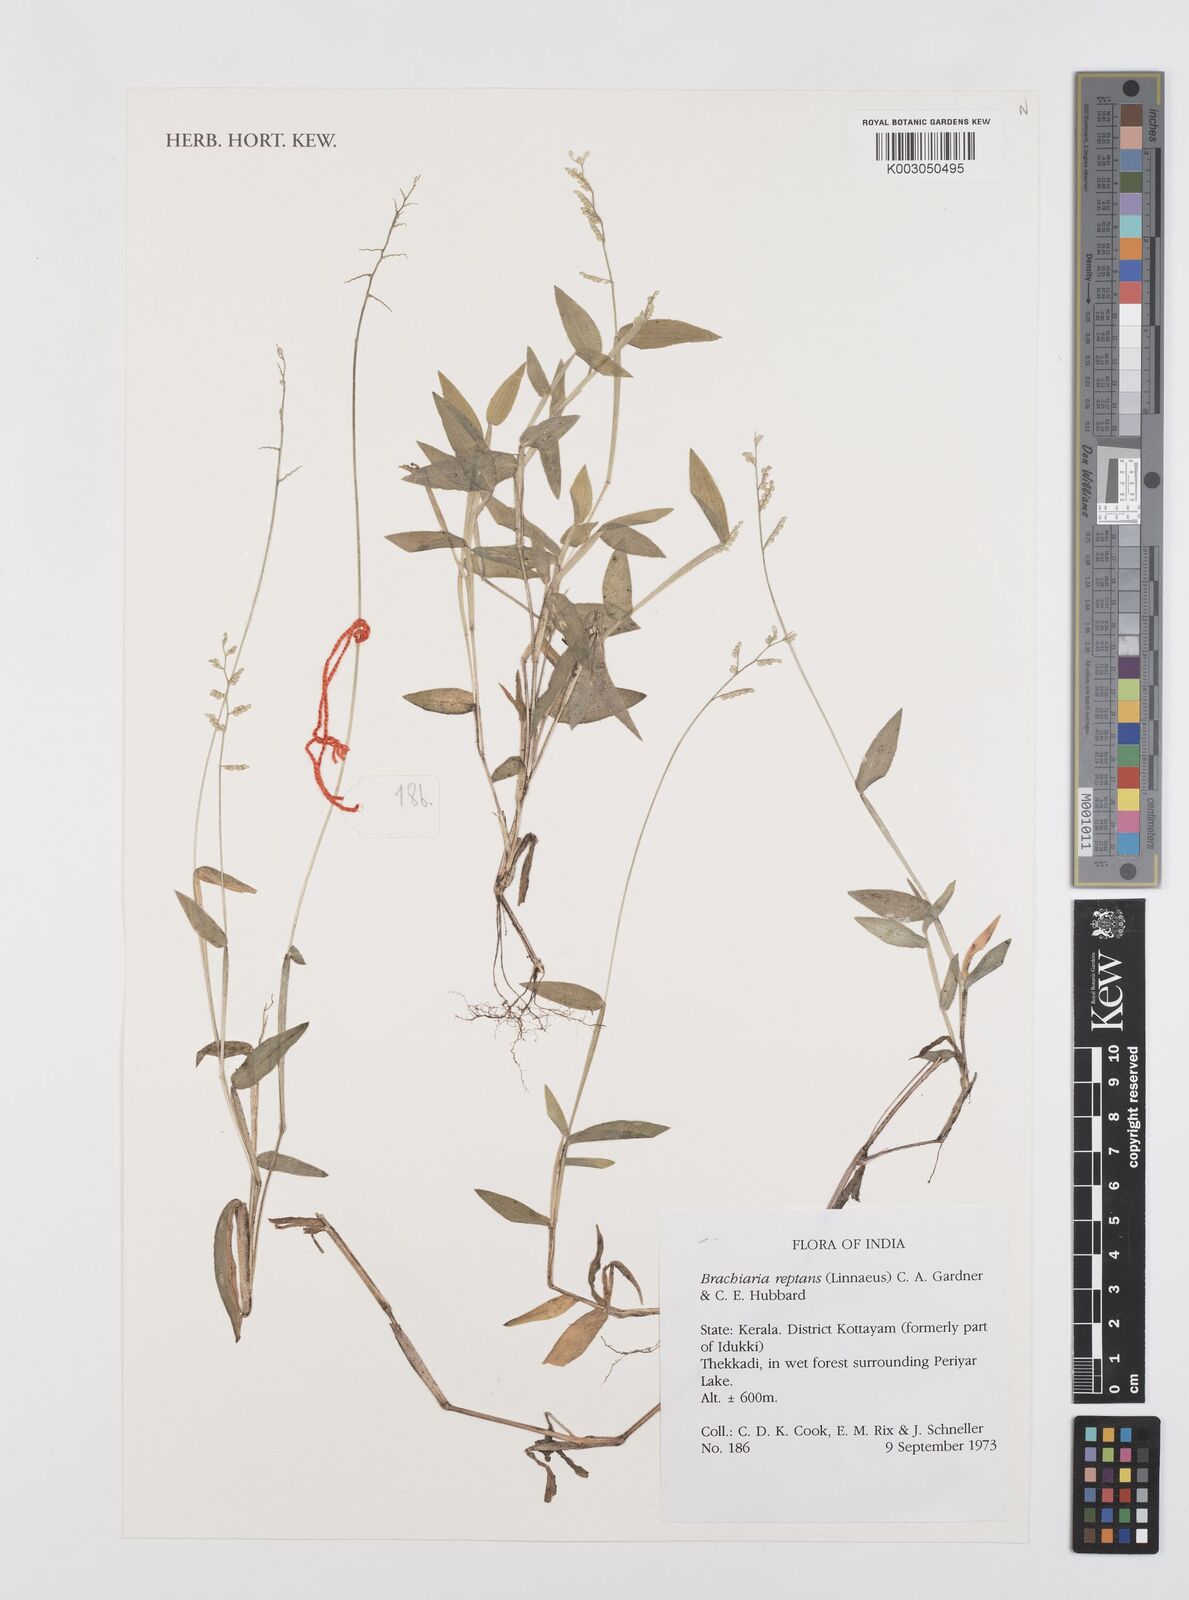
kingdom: Plantae
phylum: Tracheophyta
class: Liliopsida
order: Poales
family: Poaceae
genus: Urochloa
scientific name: Urochloa reptans
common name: Sprawling signalgrass
